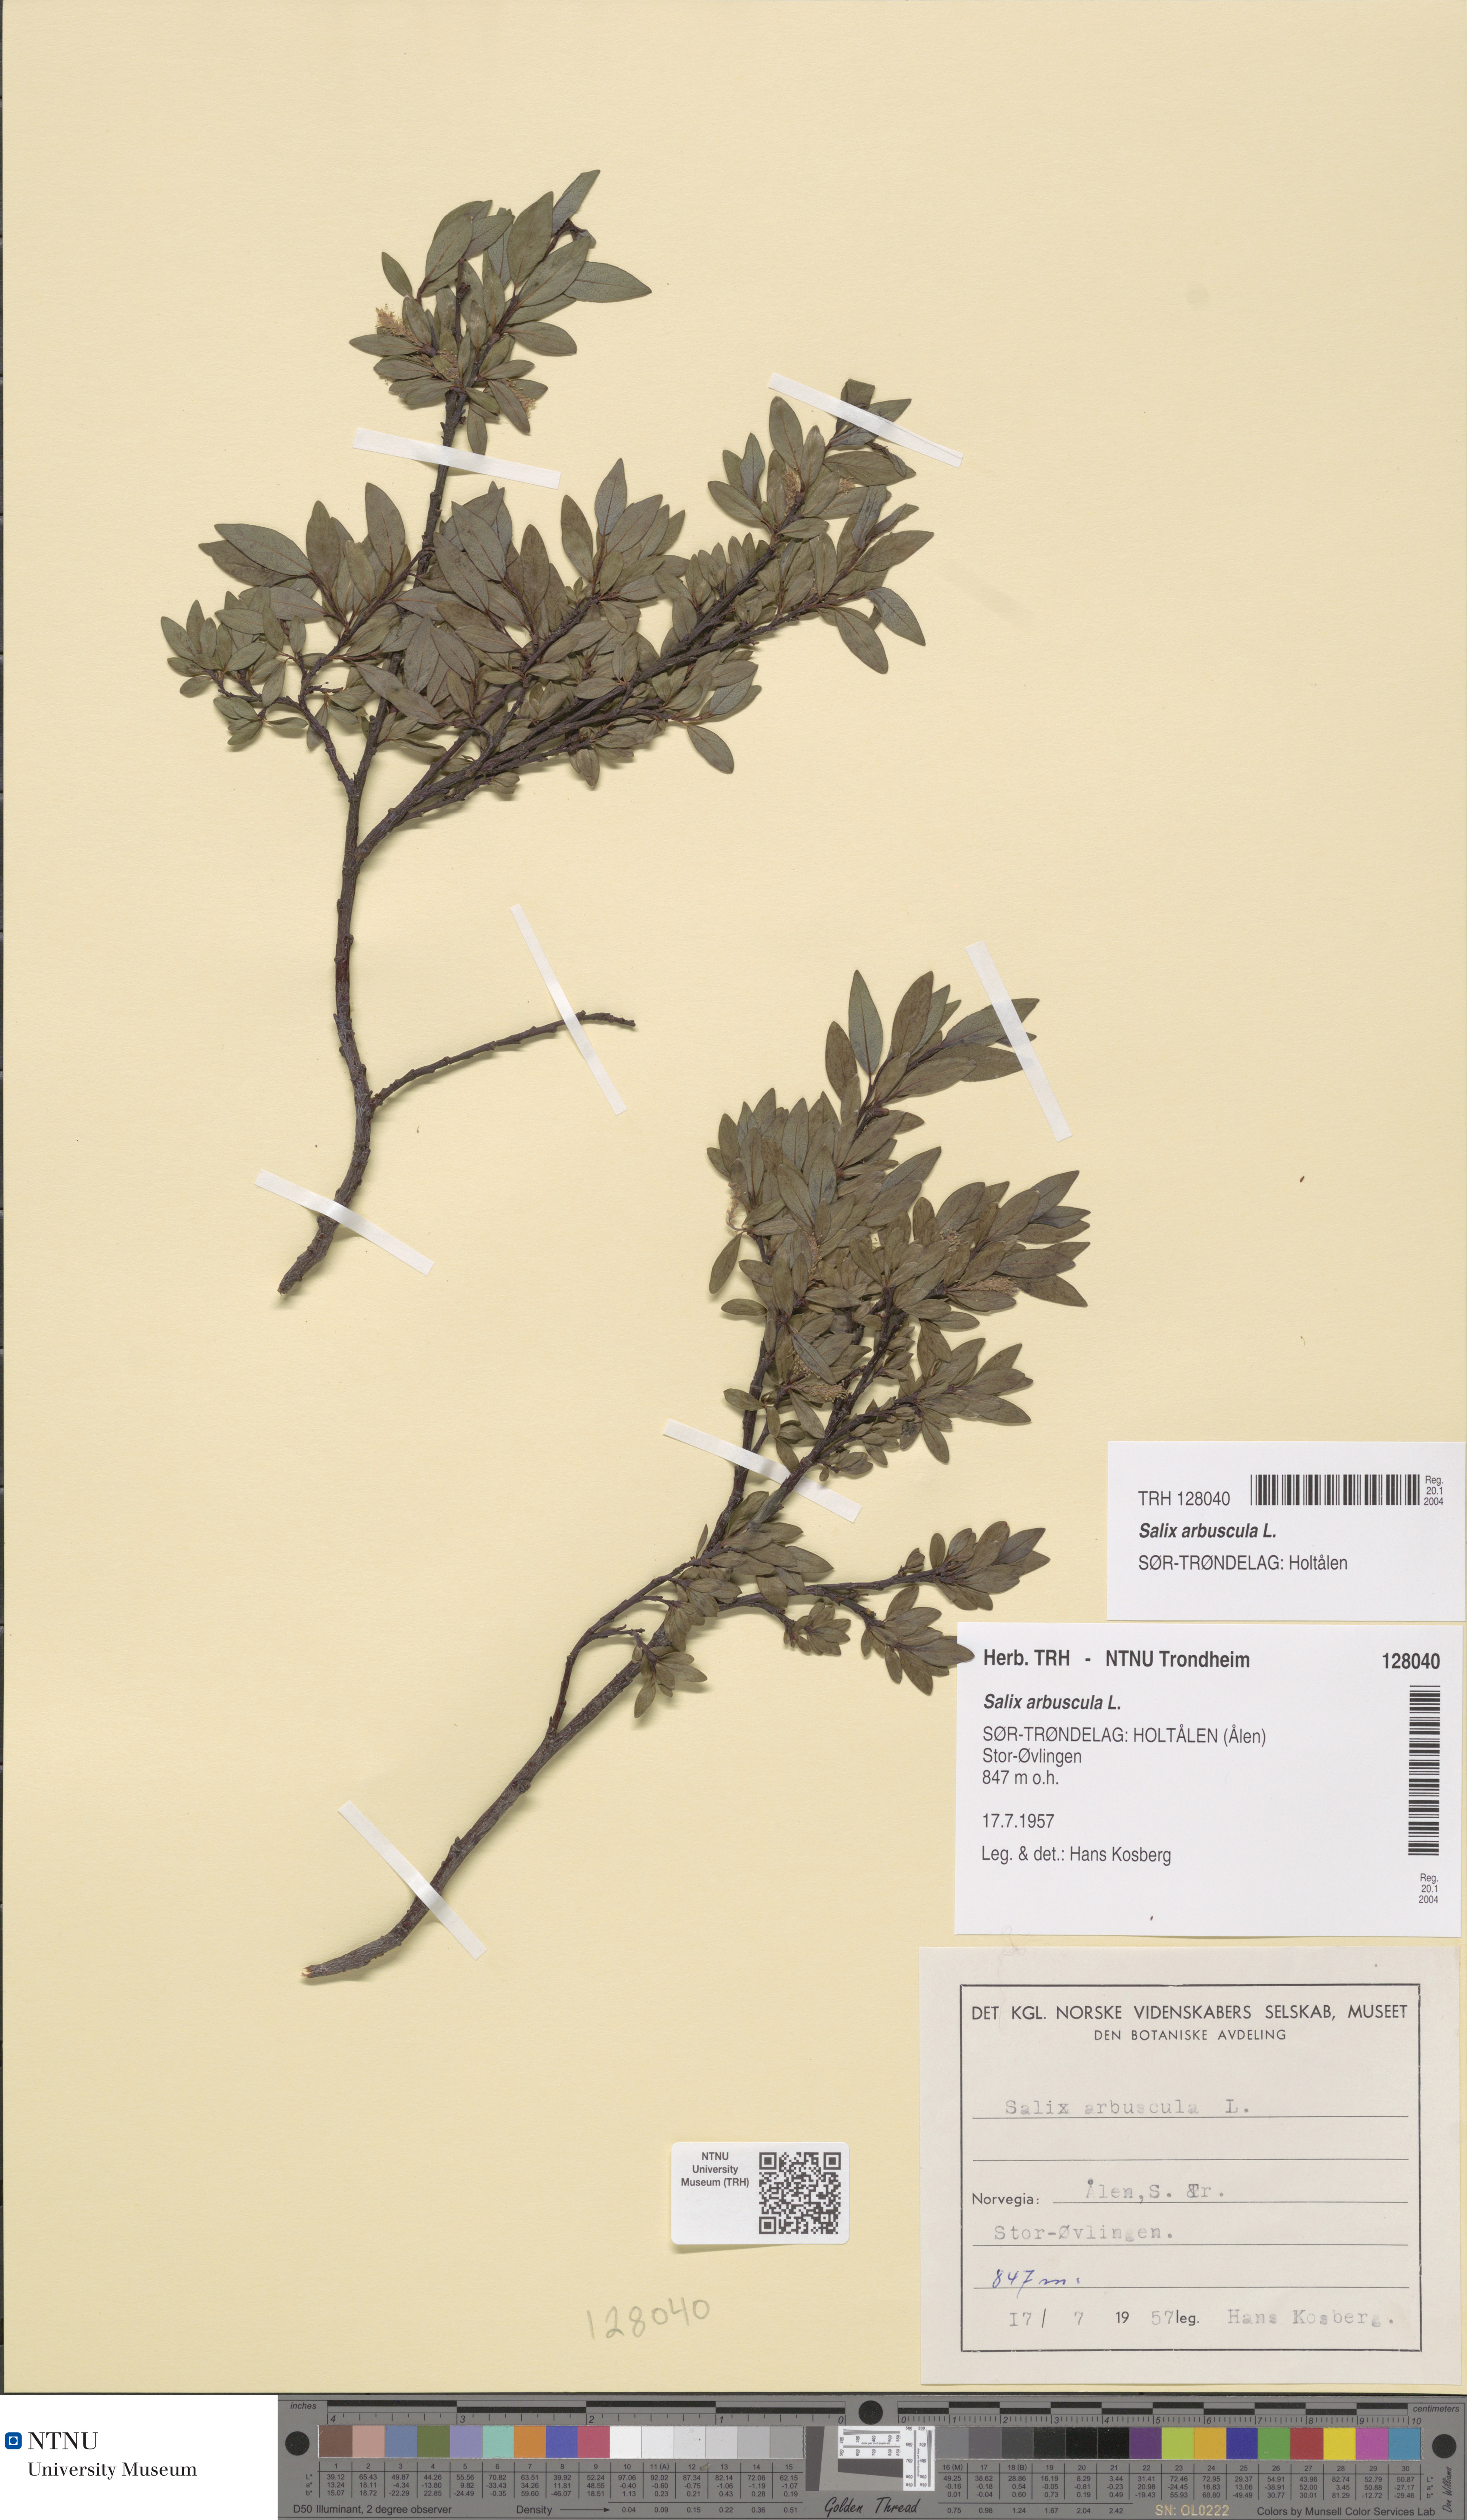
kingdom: Plantae
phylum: Tracheophyta
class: Magnoliopsida
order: Malpighiales
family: Salicaceae
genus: Salix
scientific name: Salix arbuscula
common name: Mountain willow
